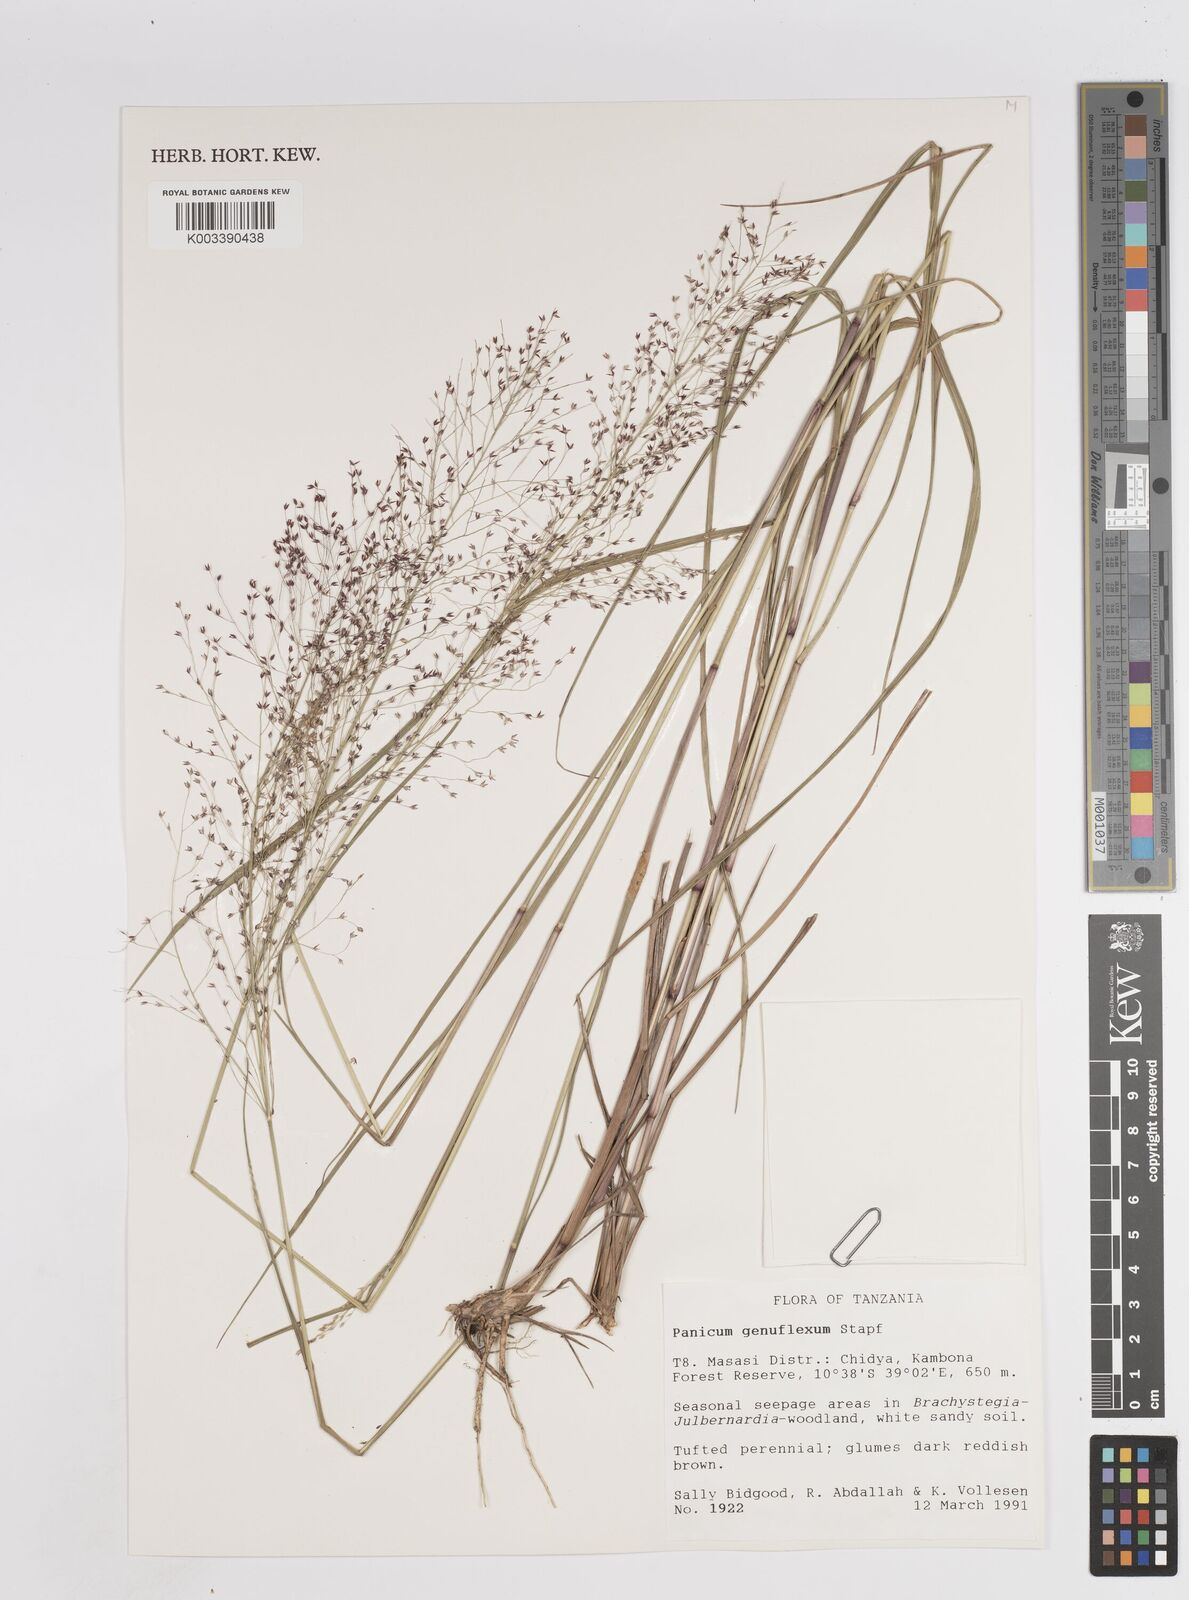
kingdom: Plantae
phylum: Tracheophyta
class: Liliopsida
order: Poales
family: Poaceae
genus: Panicum
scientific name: Panicum genuflexum
